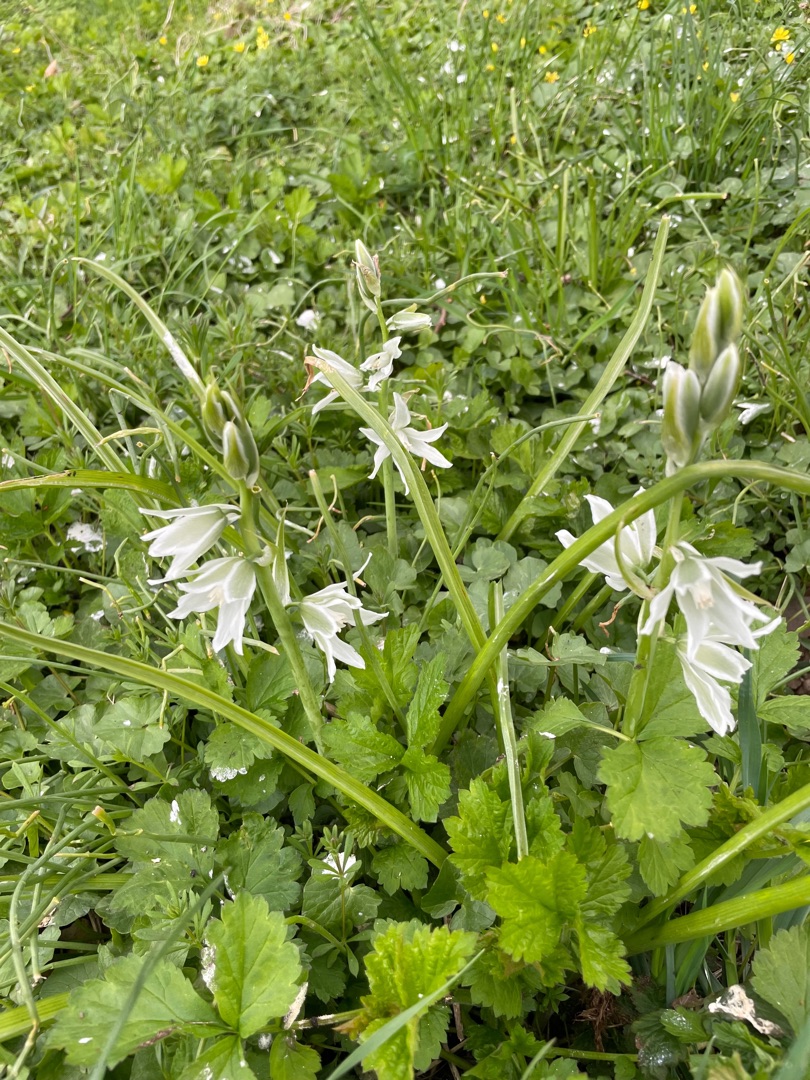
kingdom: Plantae
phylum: Tracheophyta
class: Liliopsida
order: Asparagales
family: Asparagaceae
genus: Ornithogalum
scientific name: Ornithogalum nutans
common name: Nikkende fuglemælk
